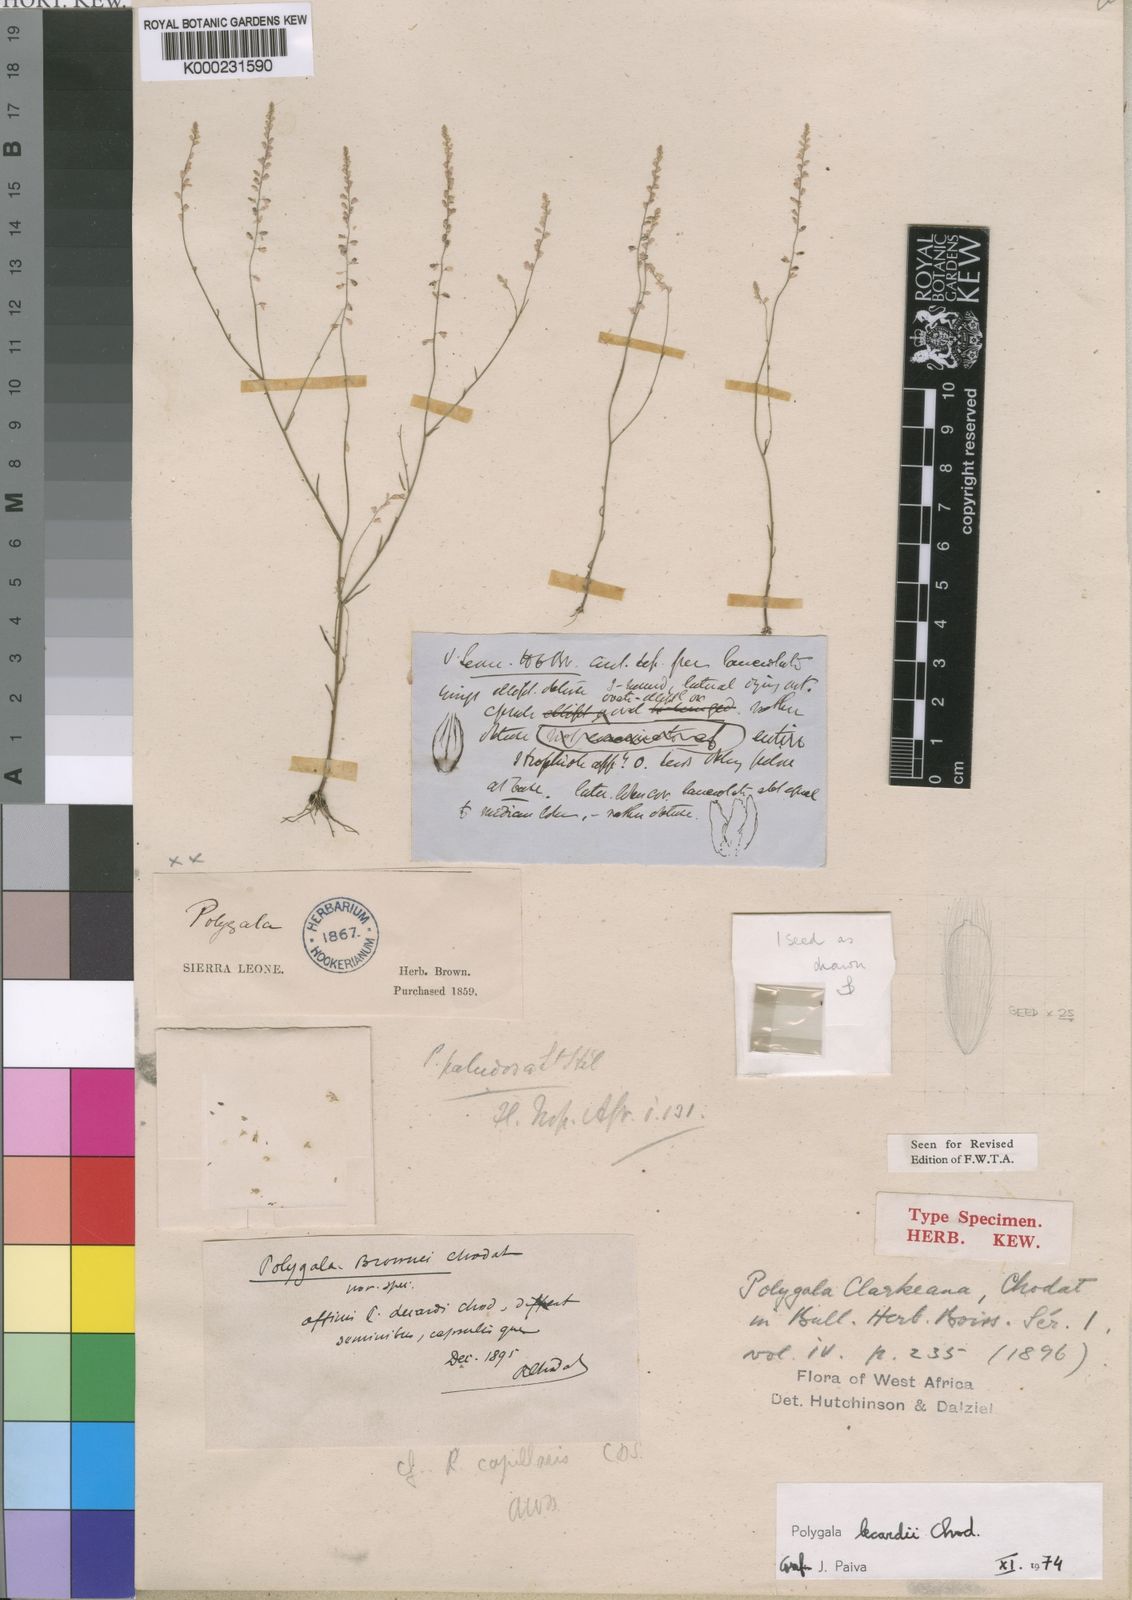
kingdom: Plantae
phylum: Tracheophyta
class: Magnoliopsida
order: Fabales
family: Polygalaceae
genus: Polygala
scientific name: Polygala lecardii
